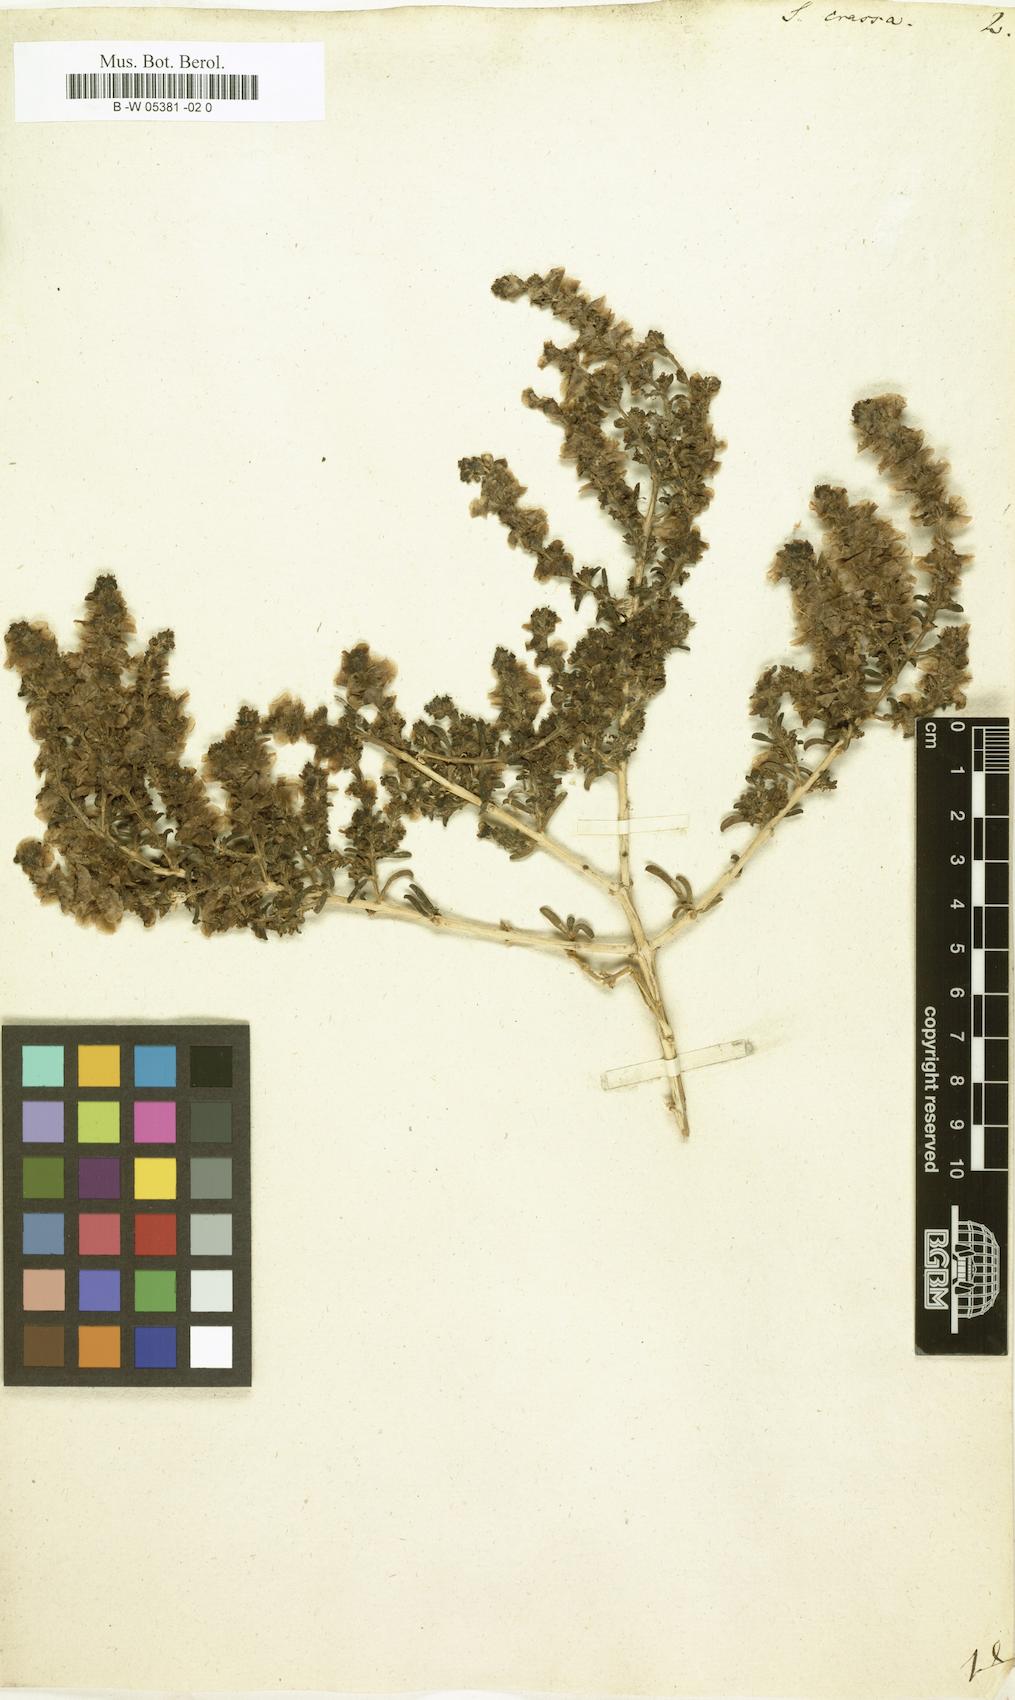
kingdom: Plantae
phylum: Tracheophyta
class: Magnoliopsida
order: Caryophyllales
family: Amaranthaceae
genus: Climacoptera
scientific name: Climacoptera crassa
